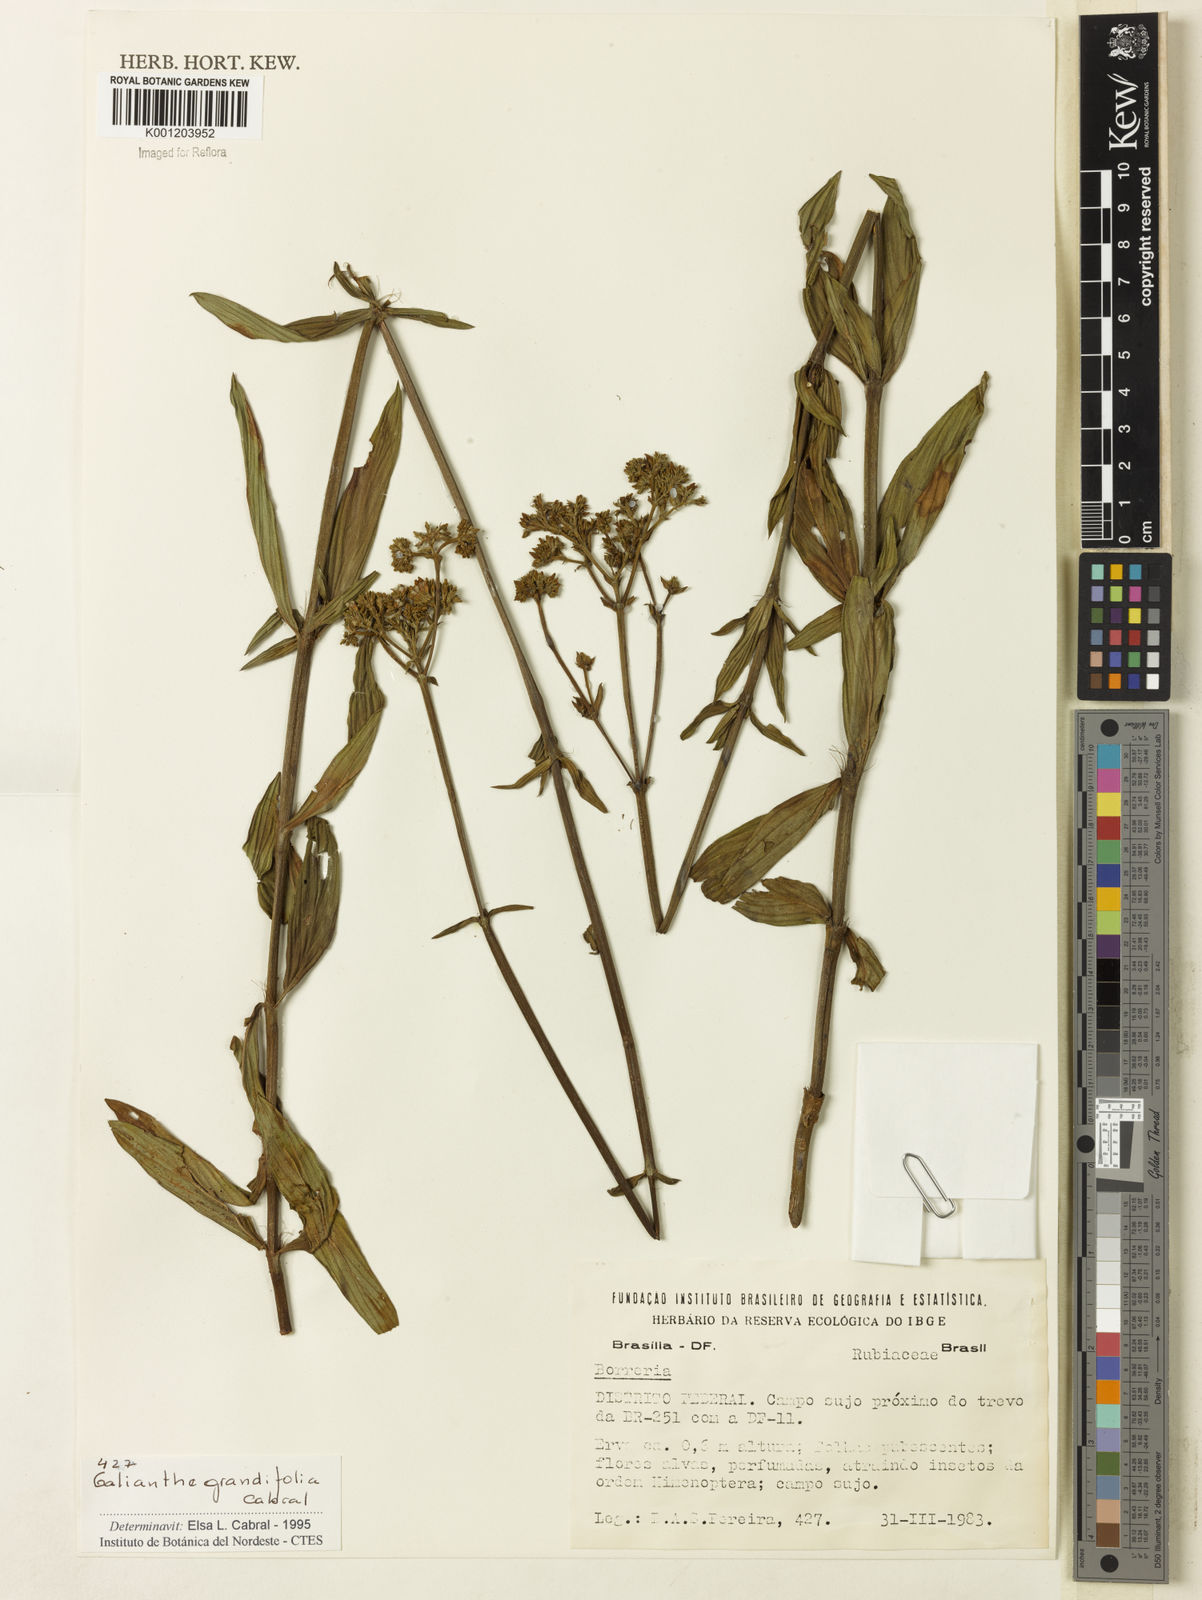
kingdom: Plantae
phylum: Tracheophyta
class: Magnoliopsida
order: Gentianales
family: Rubiaceae
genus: Galianthe
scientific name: Galianthe grandifolia
